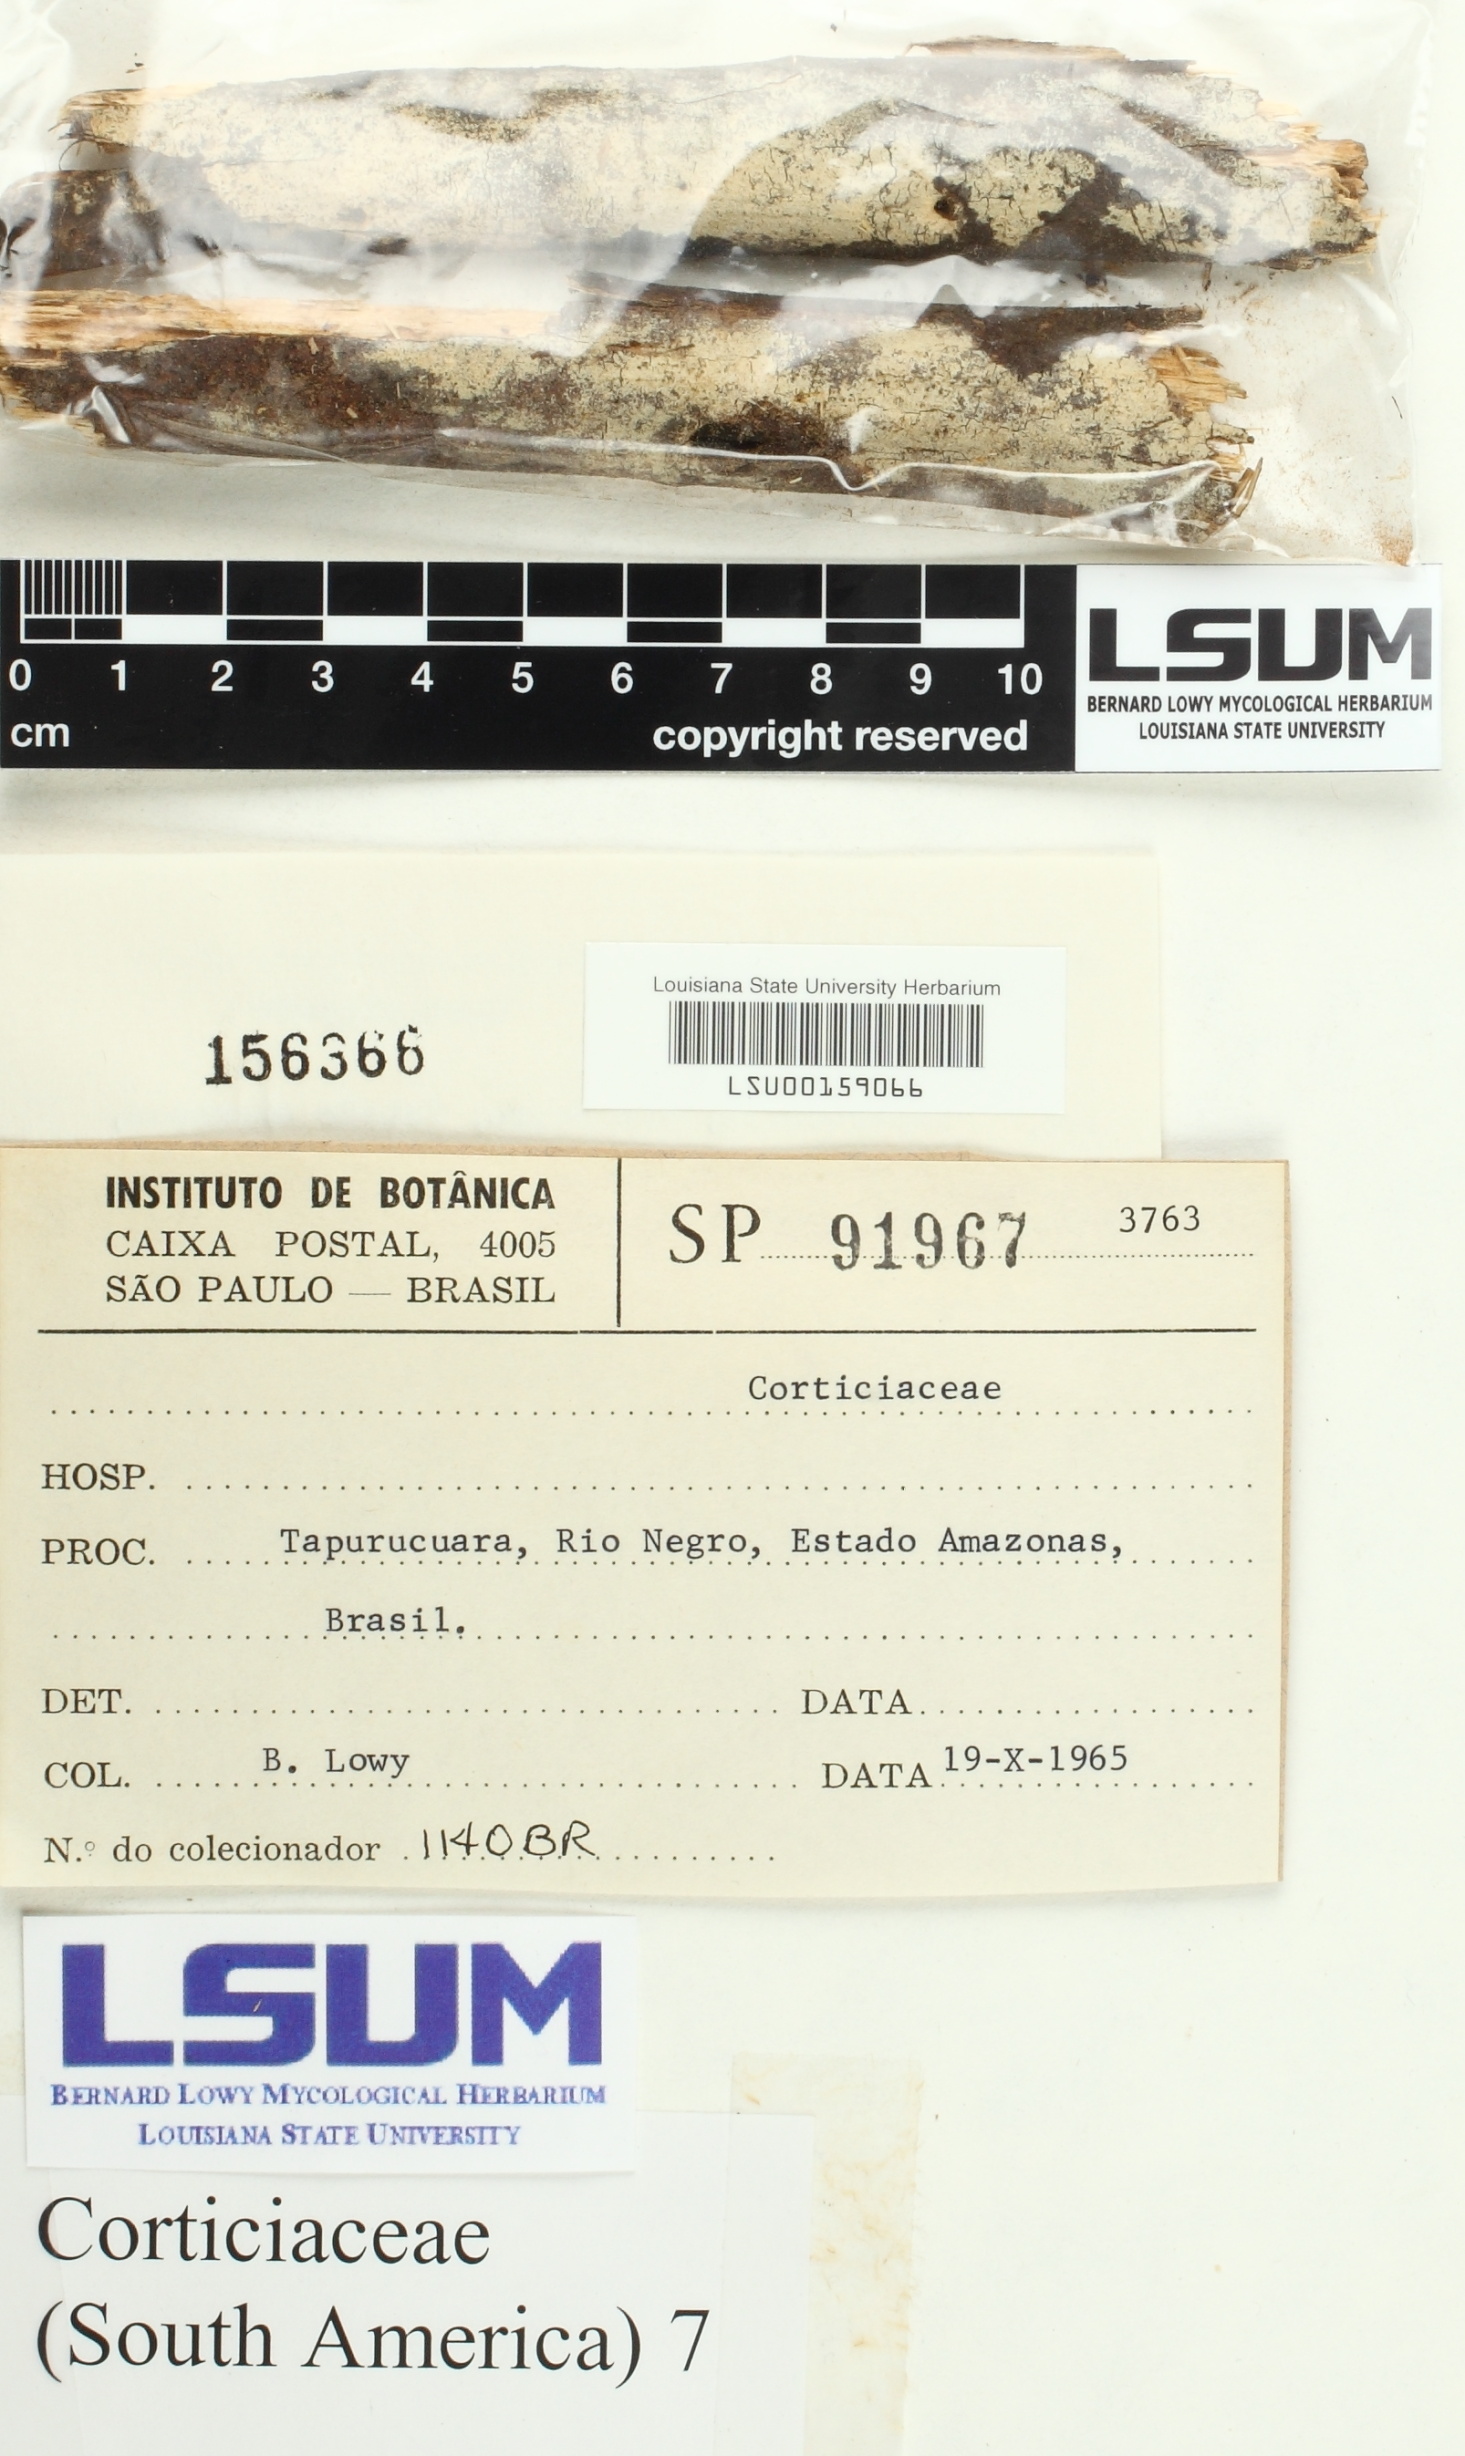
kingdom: Fungi
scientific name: Fungi
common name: Fungi
